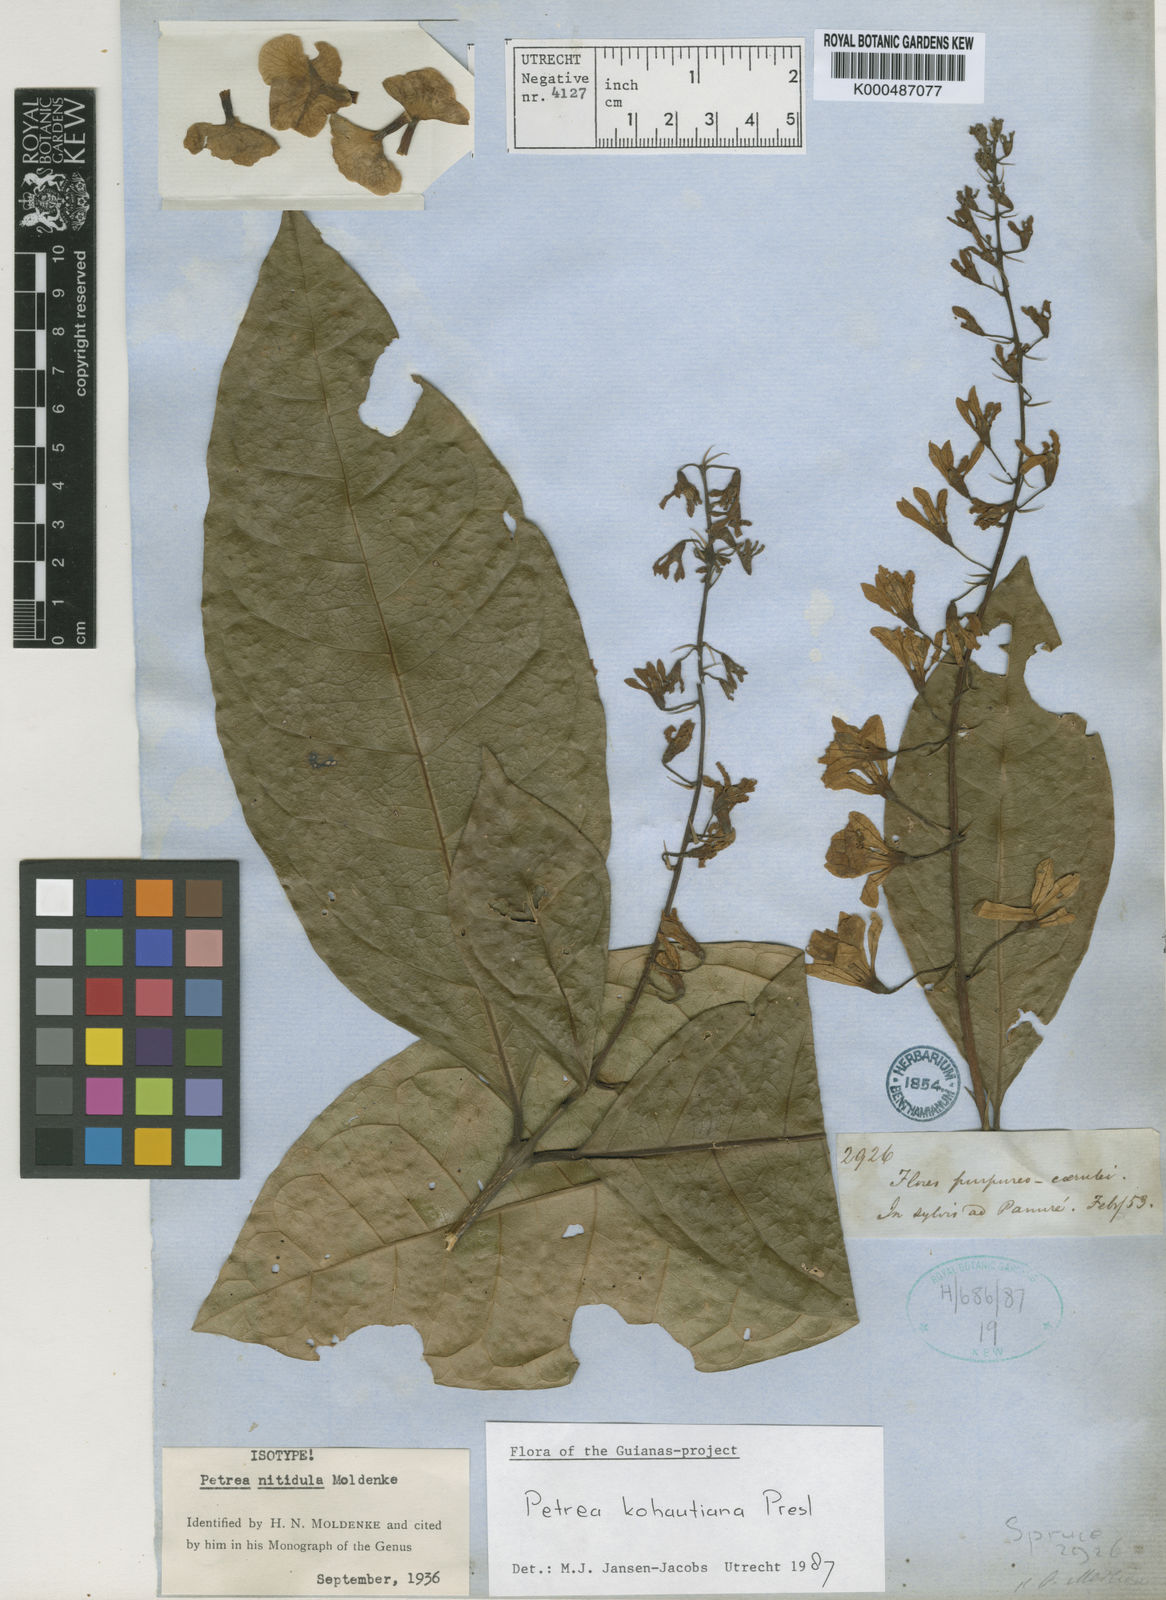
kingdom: Plantae
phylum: Tracheophyta
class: Magnoliopsida
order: Lamiales
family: Verbenaceae
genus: Petrea
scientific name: Petrea volubilis
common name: Queen's-wreath
